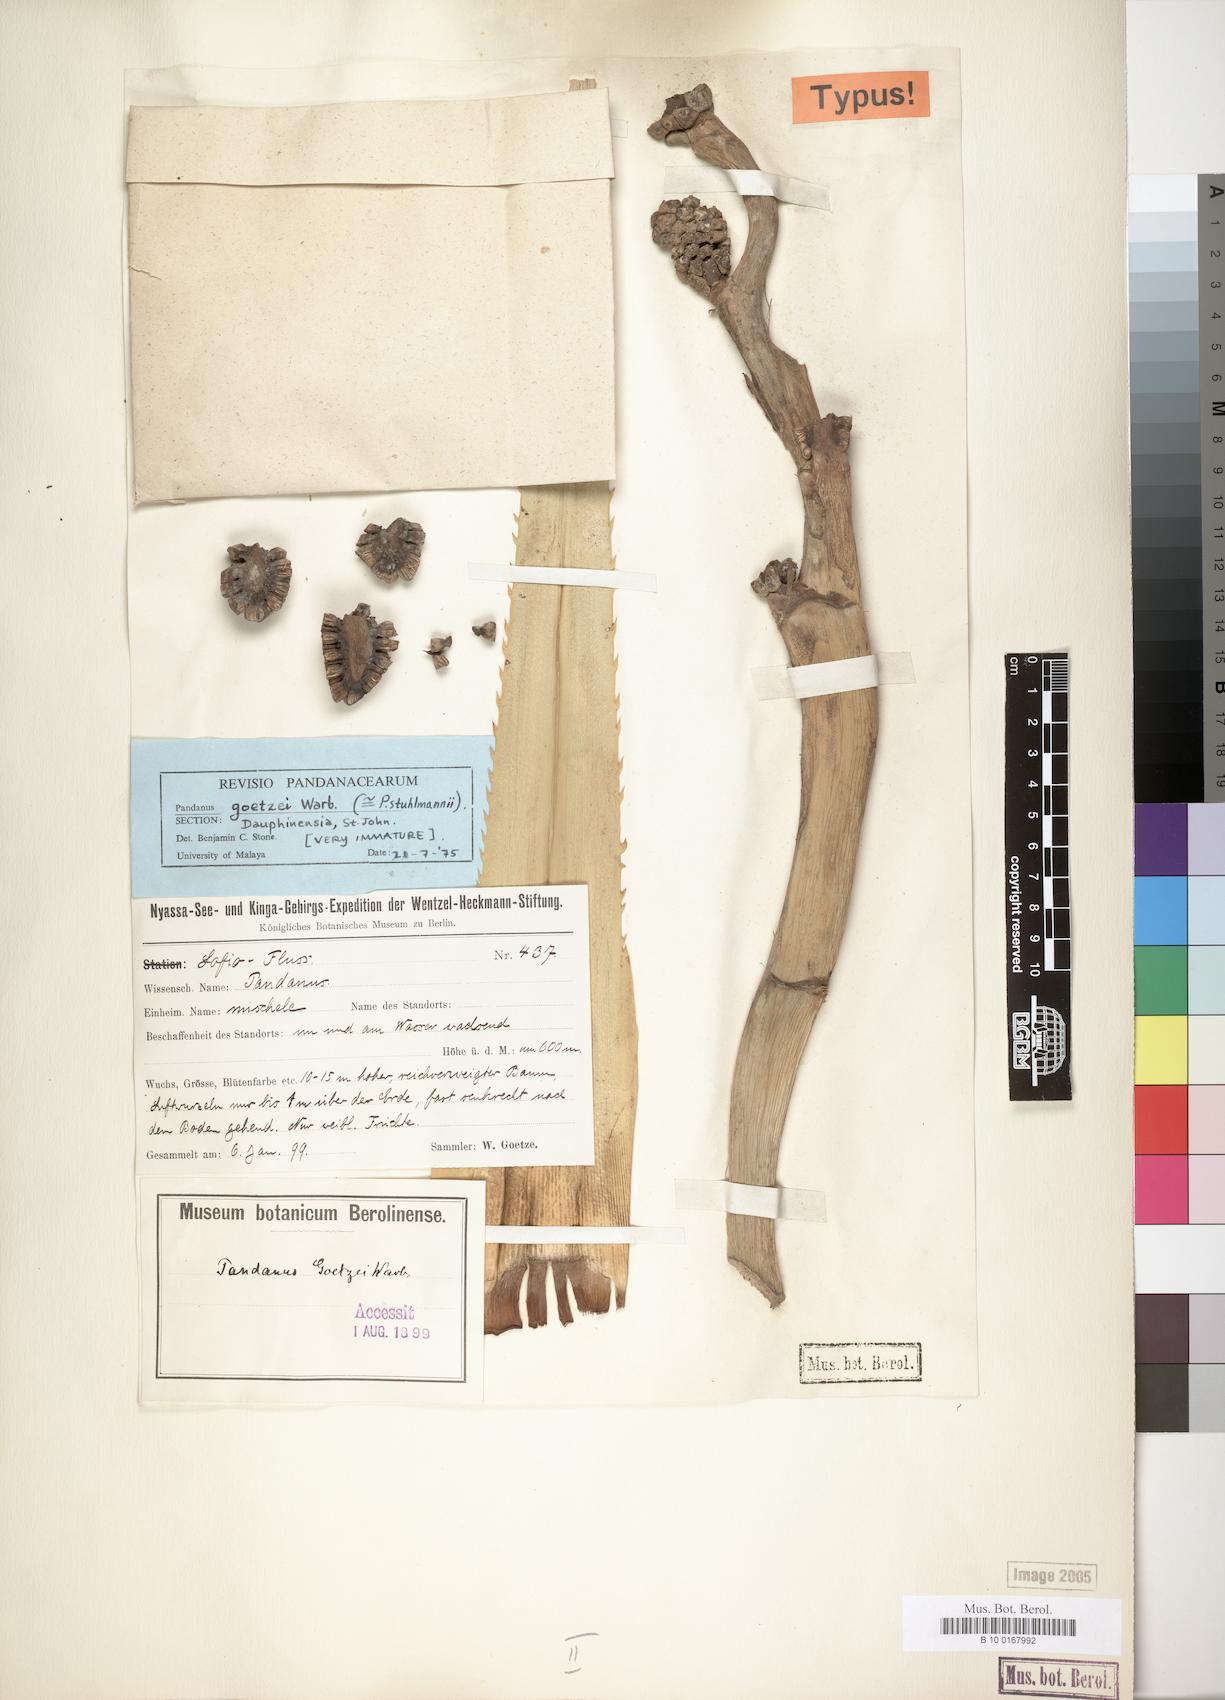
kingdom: Plantae
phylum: Tracheophyta
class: Liliopsida
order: Pandanales
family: Pandanaceae
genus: Pandanus
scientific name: Pandanus rabaiensis
